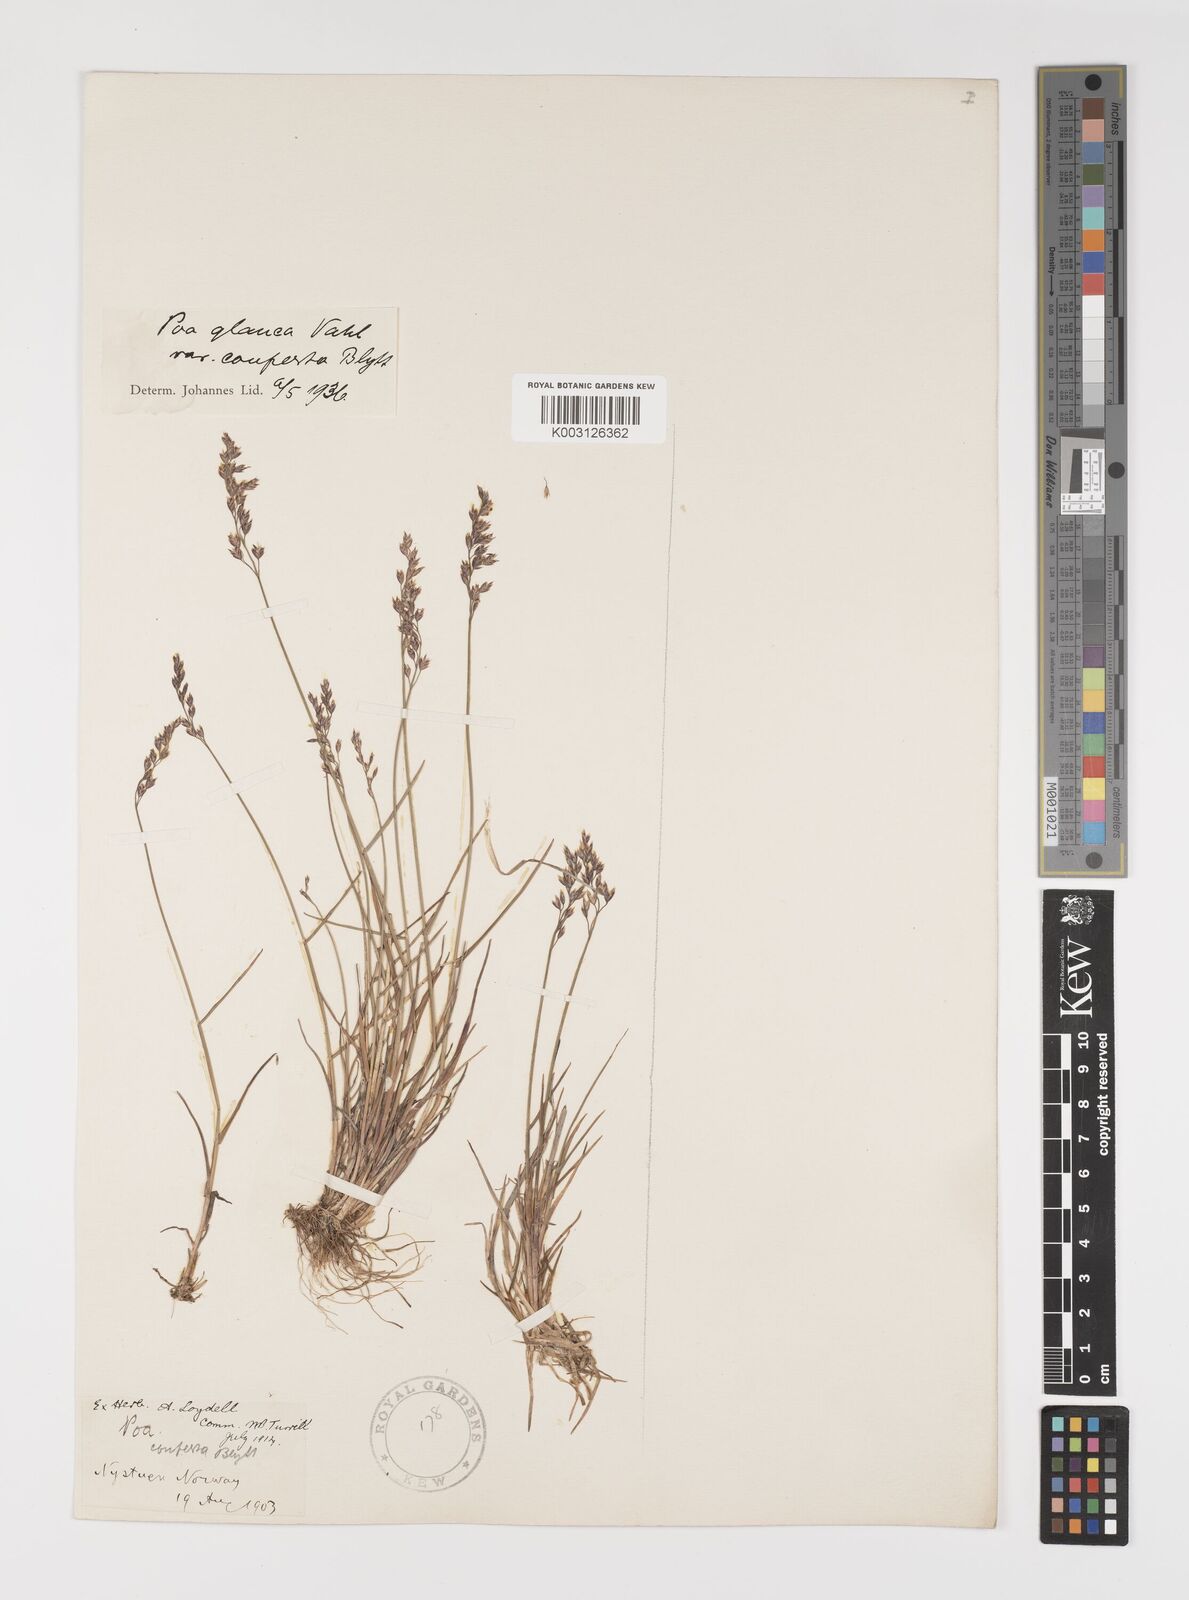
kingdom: Plantae
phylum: Tracheophyta
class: Liliopsida
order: Poales
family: Poaceae
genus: Poa
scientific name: Poa glauca
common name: Glaucous bluegrass
